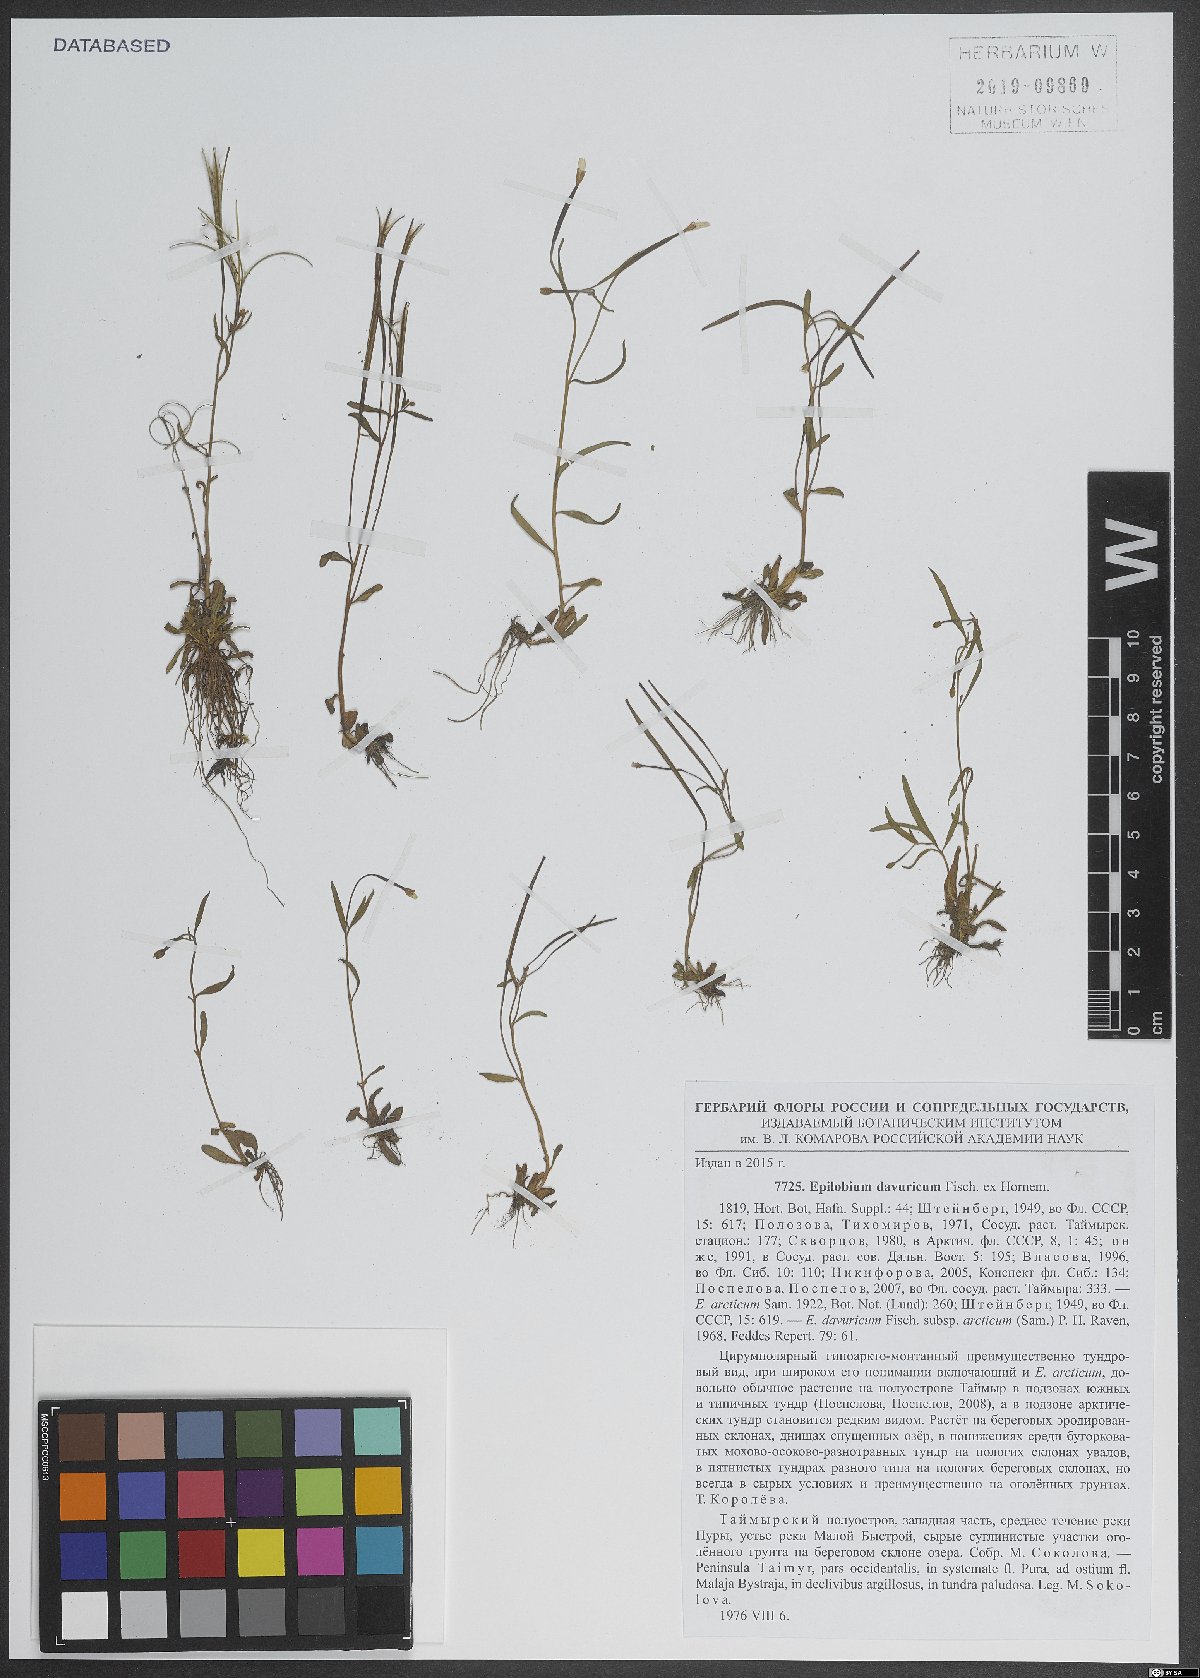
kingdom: Plantae
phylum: Tracheophyta
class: Magnoliopsida
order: Myrtales
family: Onagraceae
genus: Epilobium
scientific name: Epilobium davuricum
